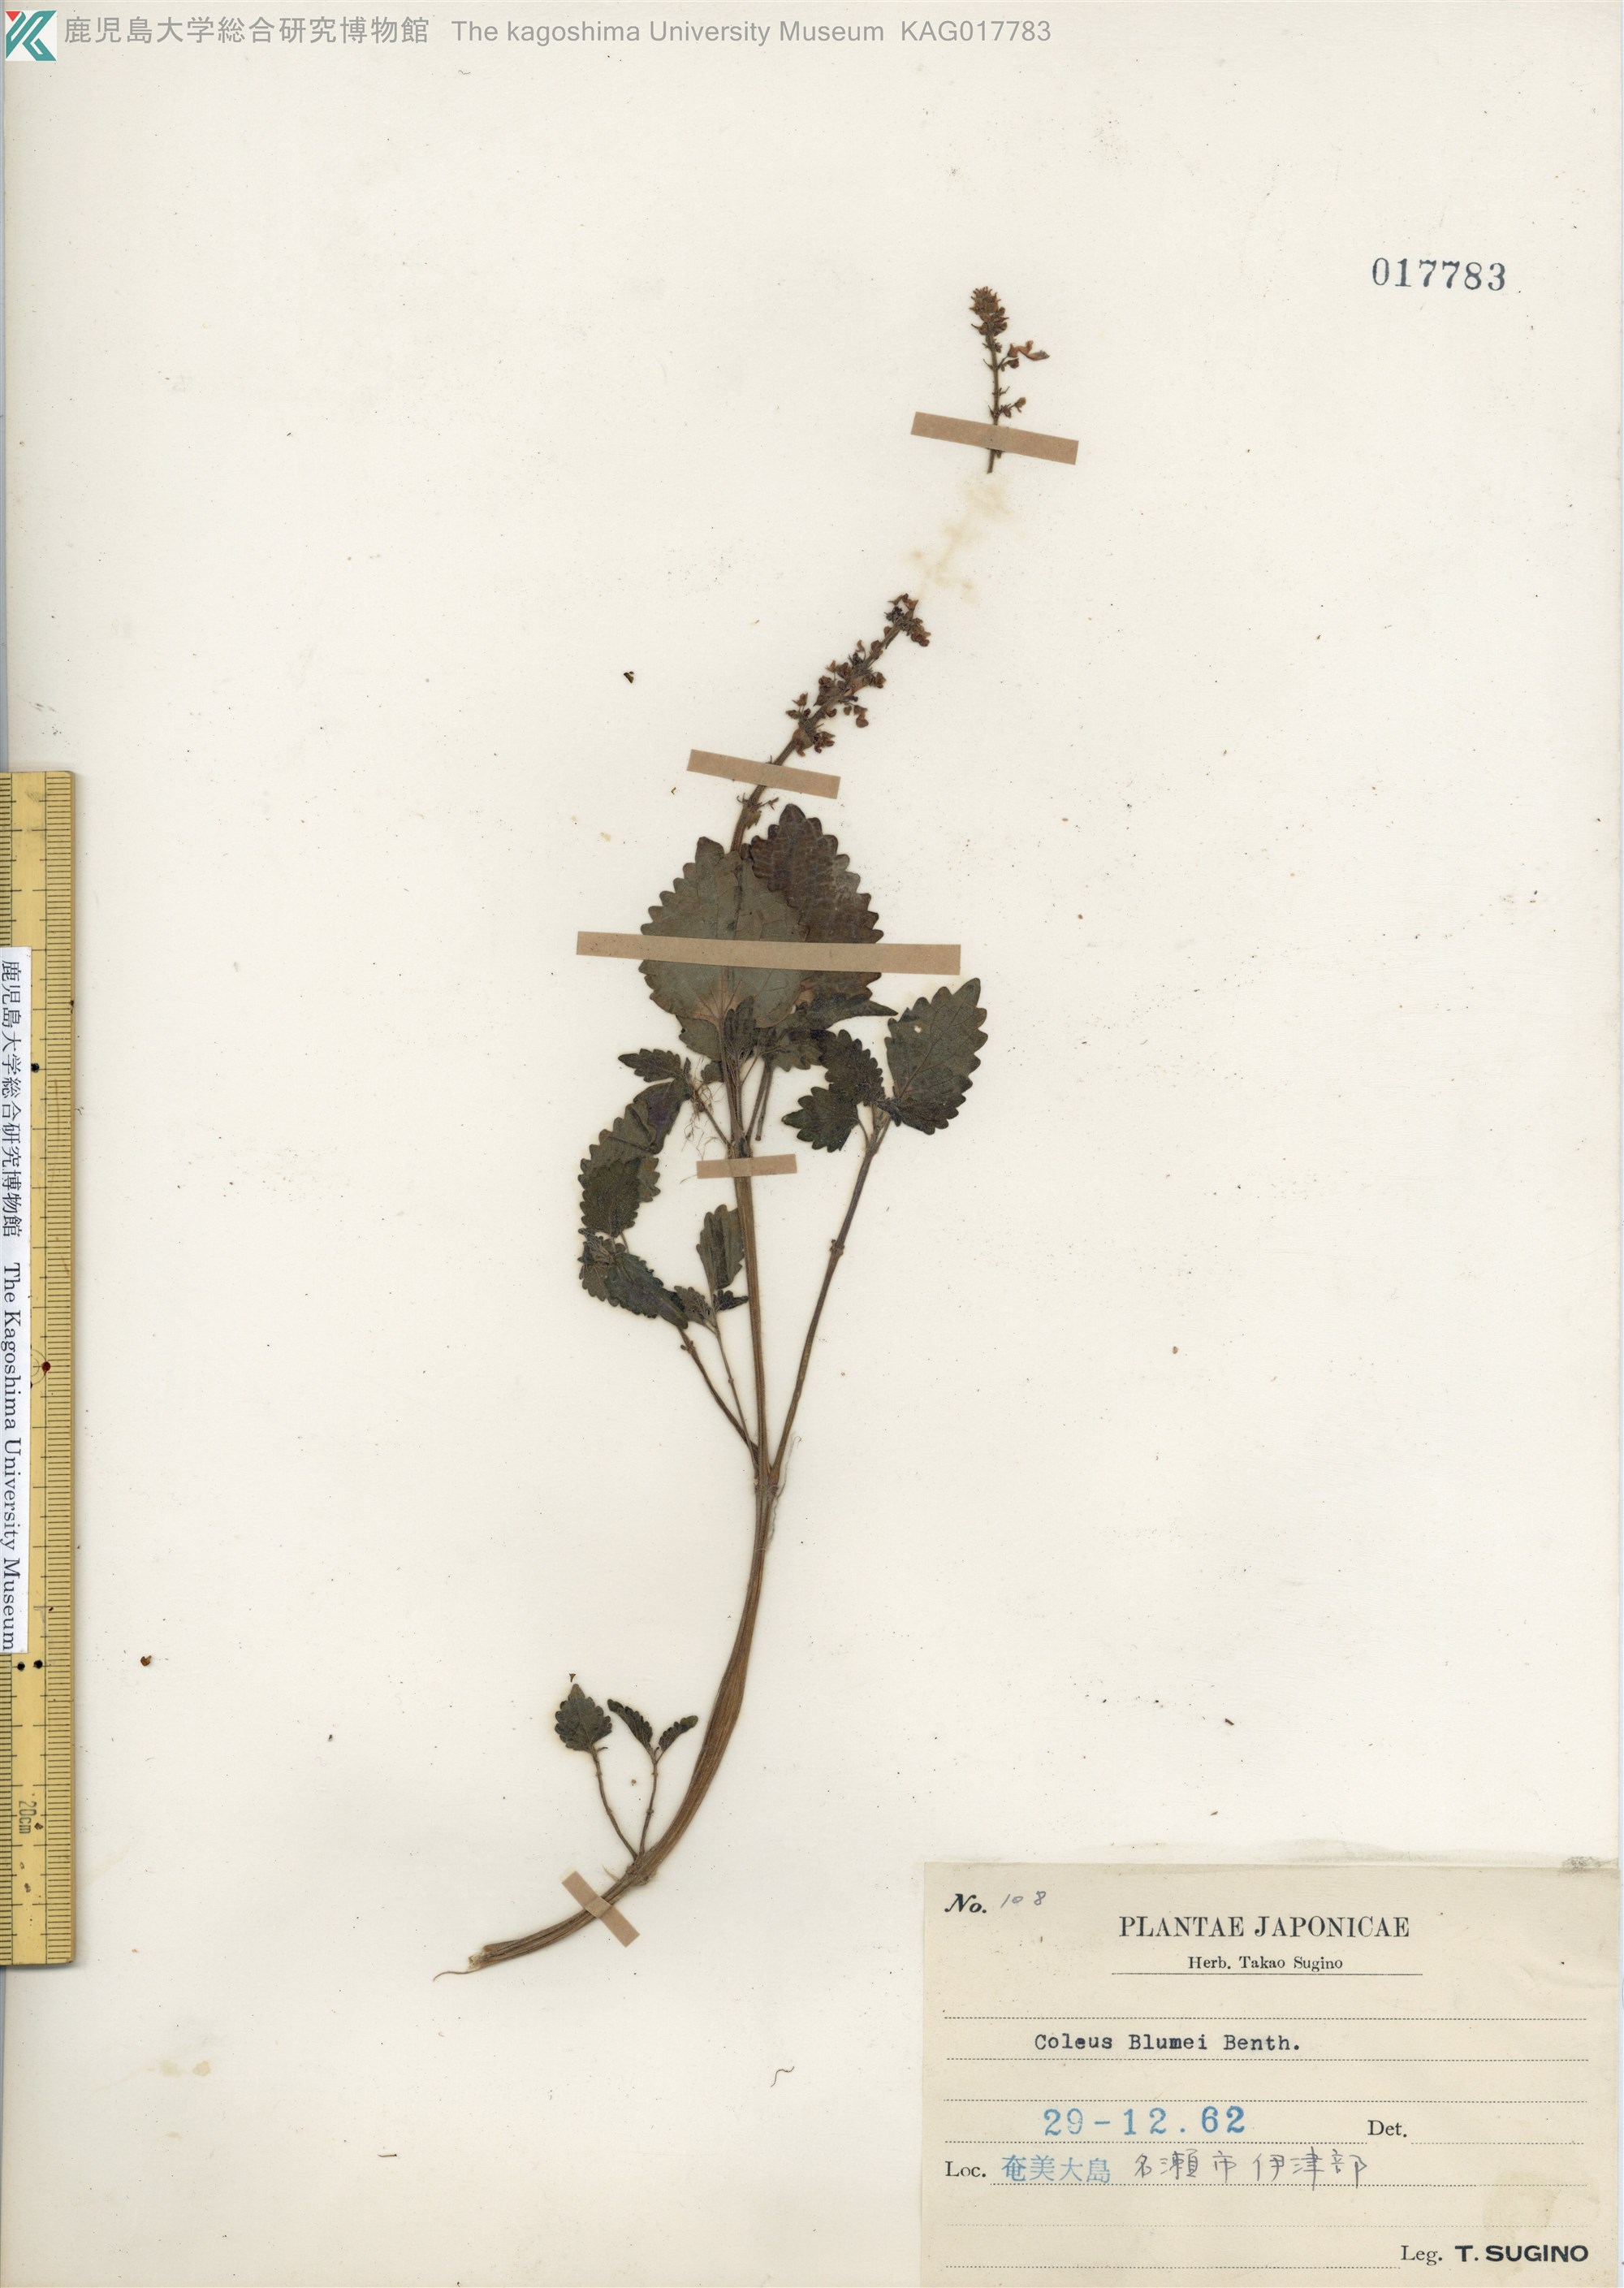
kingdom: Plantae
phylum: Tracheophyta
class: Magnoliopsida
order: Lamiales
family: Lamiaceae
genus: Coleus
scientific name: Coleus scutellarioides
